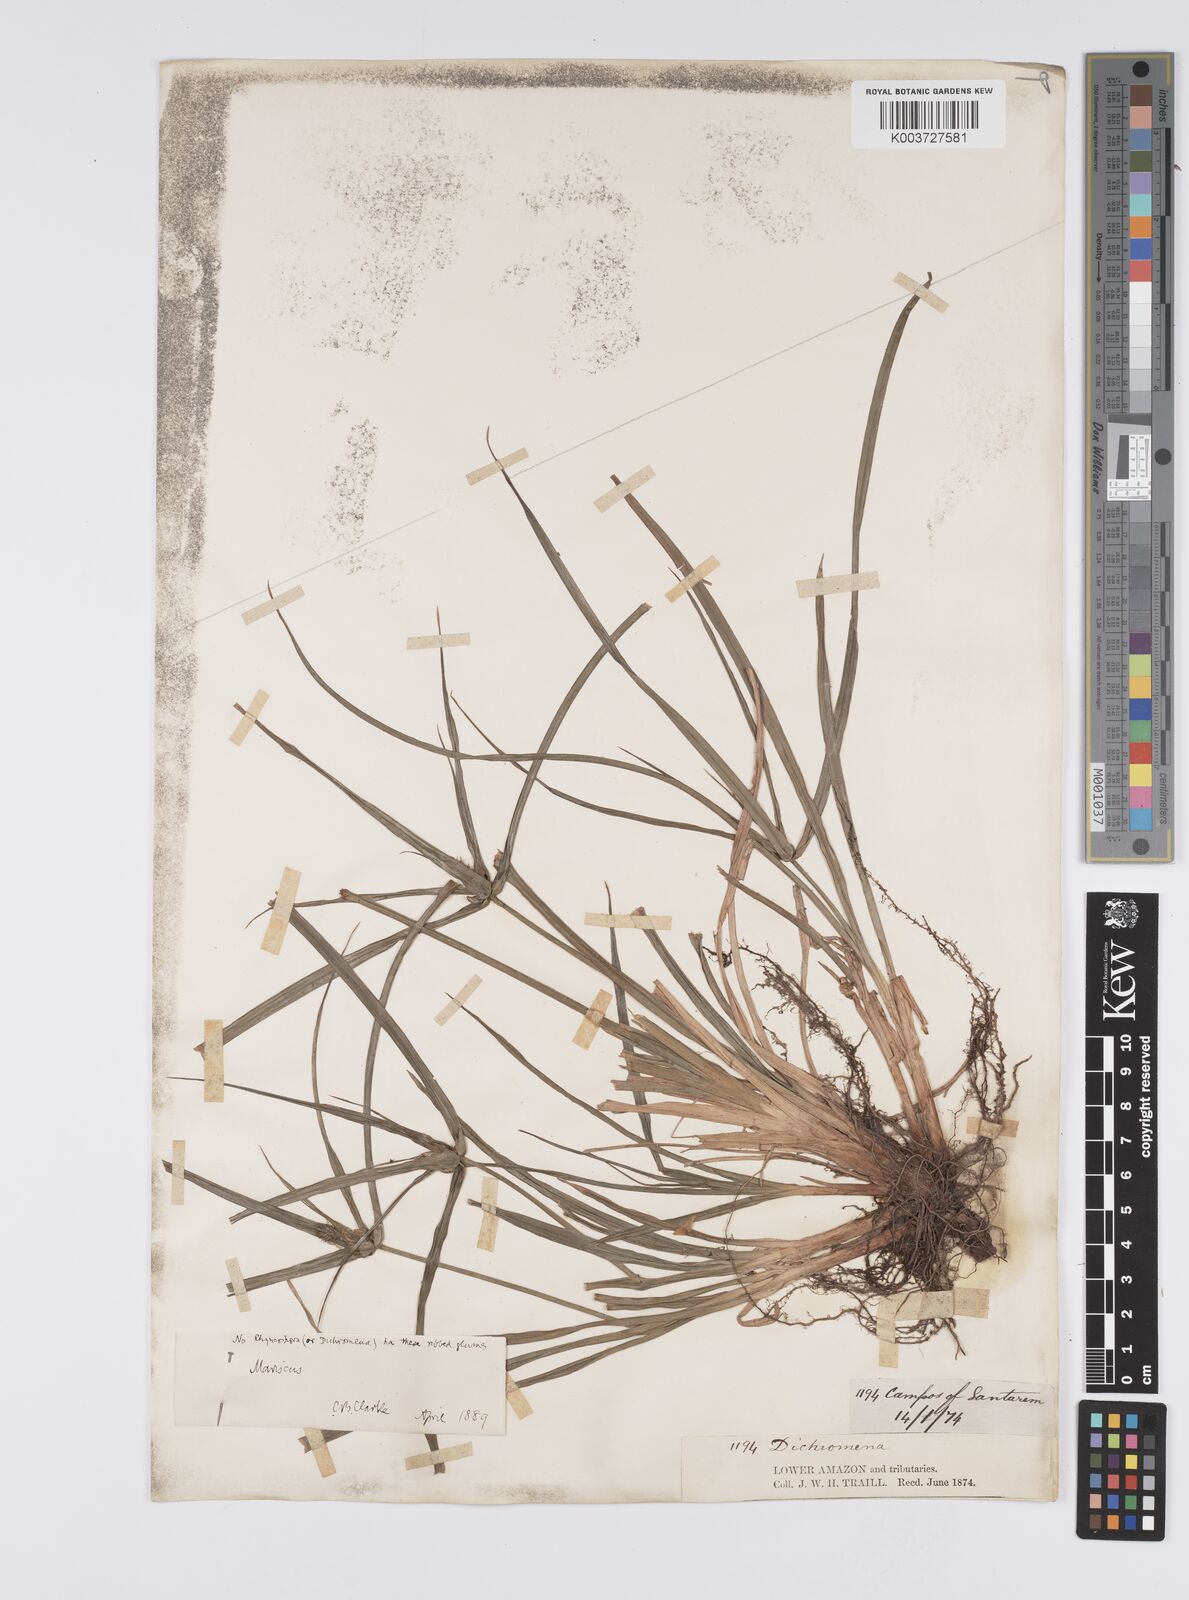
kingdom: Plantae
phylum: Tracheophyta
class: Liliopsida
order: Poales
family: Cyperaceae
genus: Cyperus
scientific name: Cyperus aggregatus
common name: Inflatedscale flatsedge
